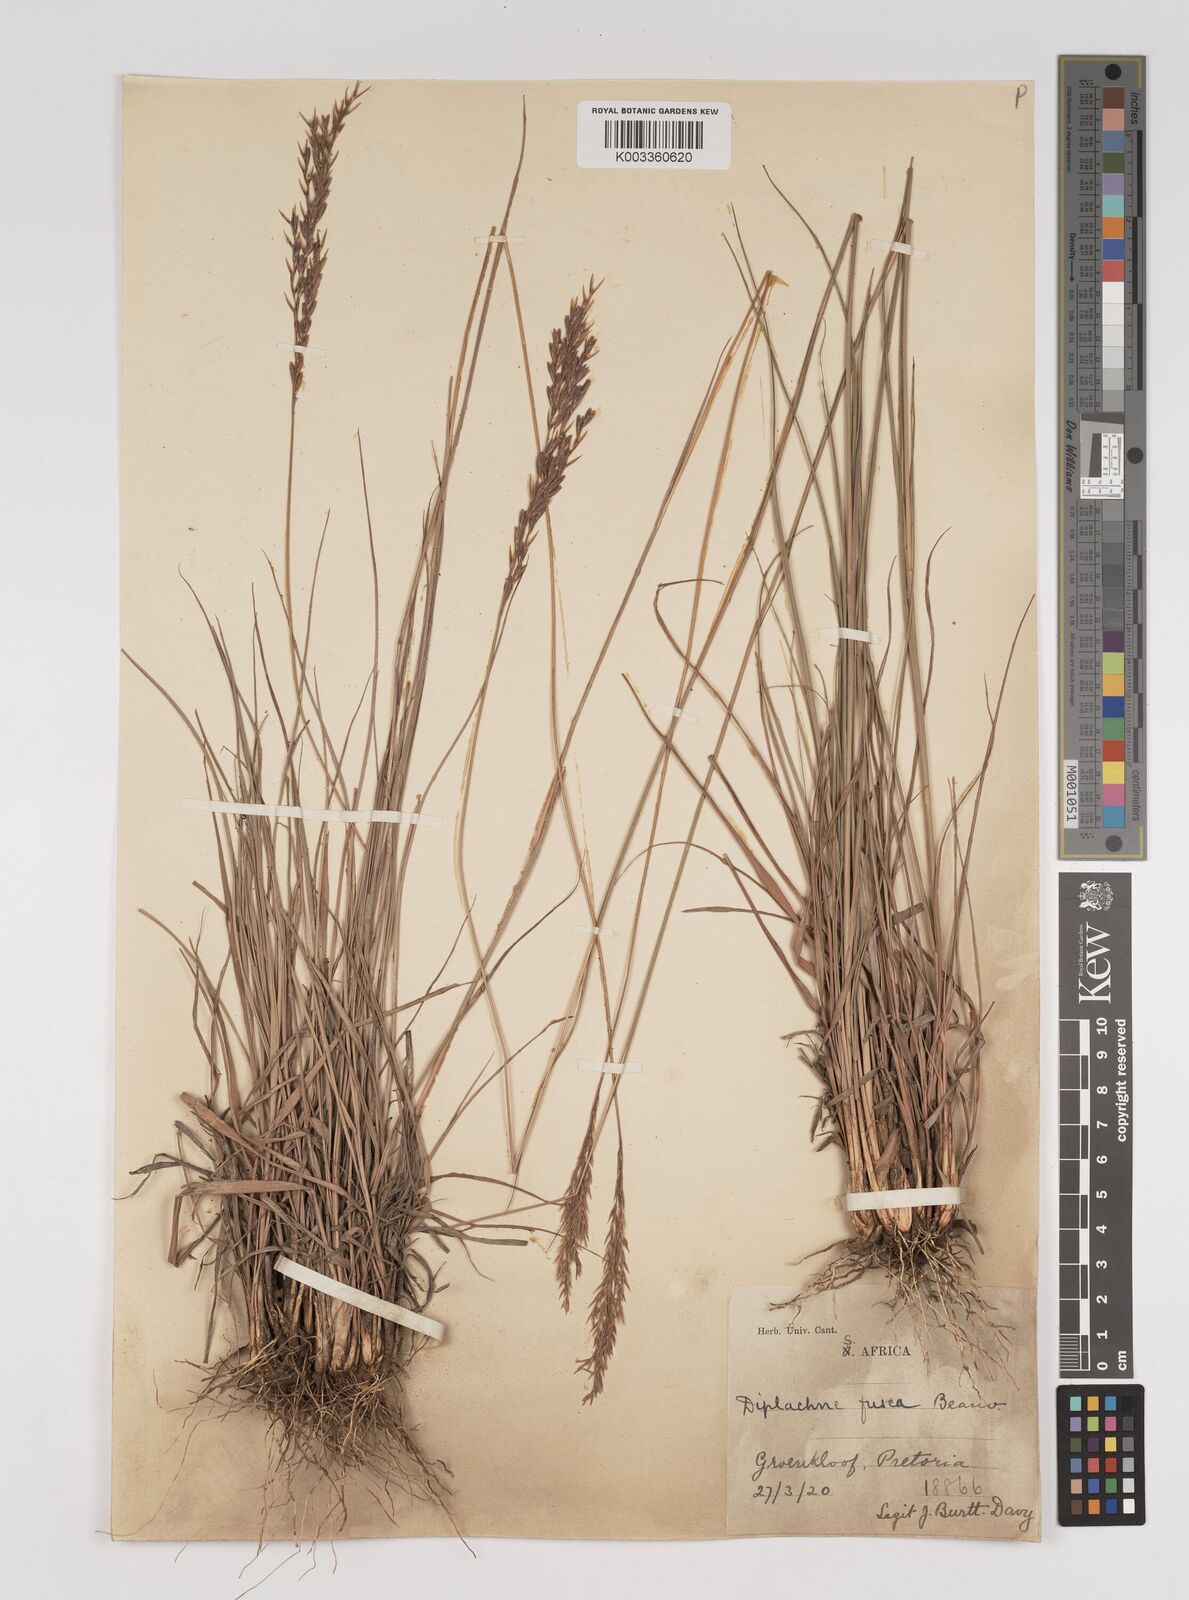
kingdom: Plantae
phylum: Tracheophyta
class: Liliopsida
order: Poales
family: Poaceae
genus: Bewsia
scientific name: Bewsia biflora
